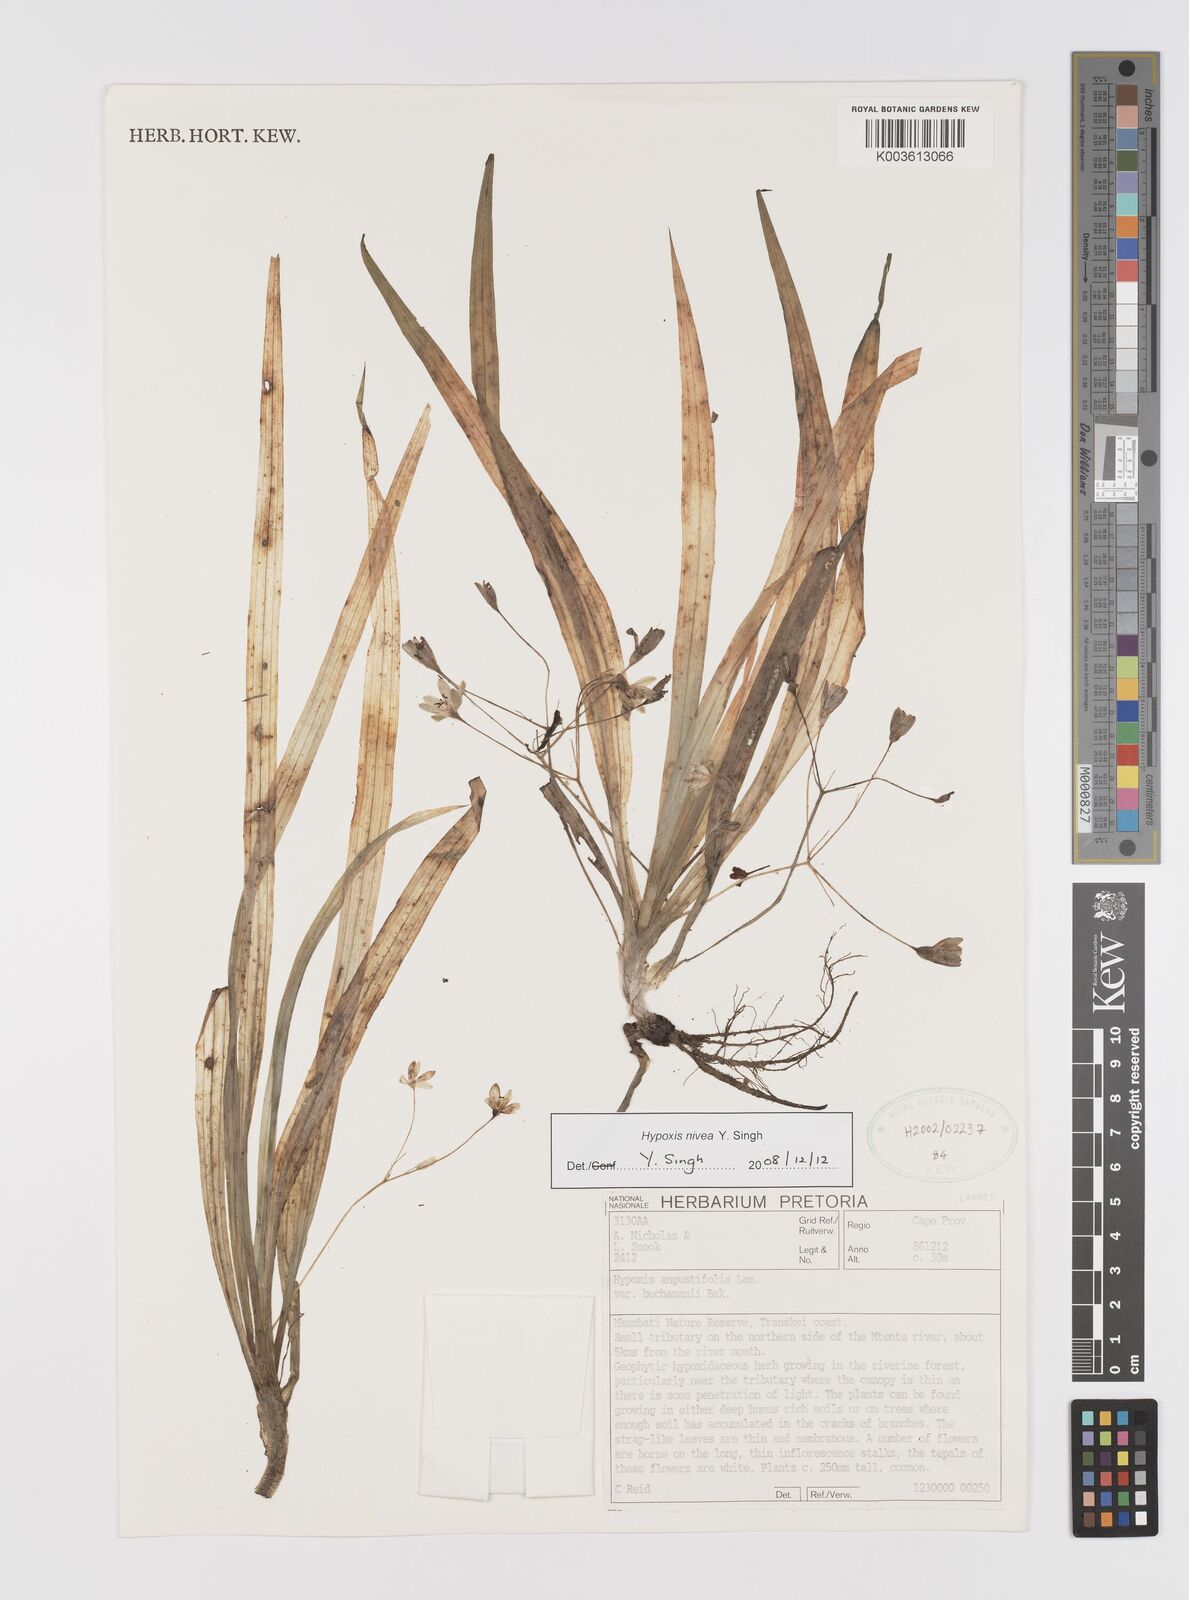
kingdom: Plantae
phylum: Tracheophyta
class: Liliopsida
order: Asparagales
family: Hypoxidaceae
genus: Hypoxis
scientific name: Hypoxis nivea
